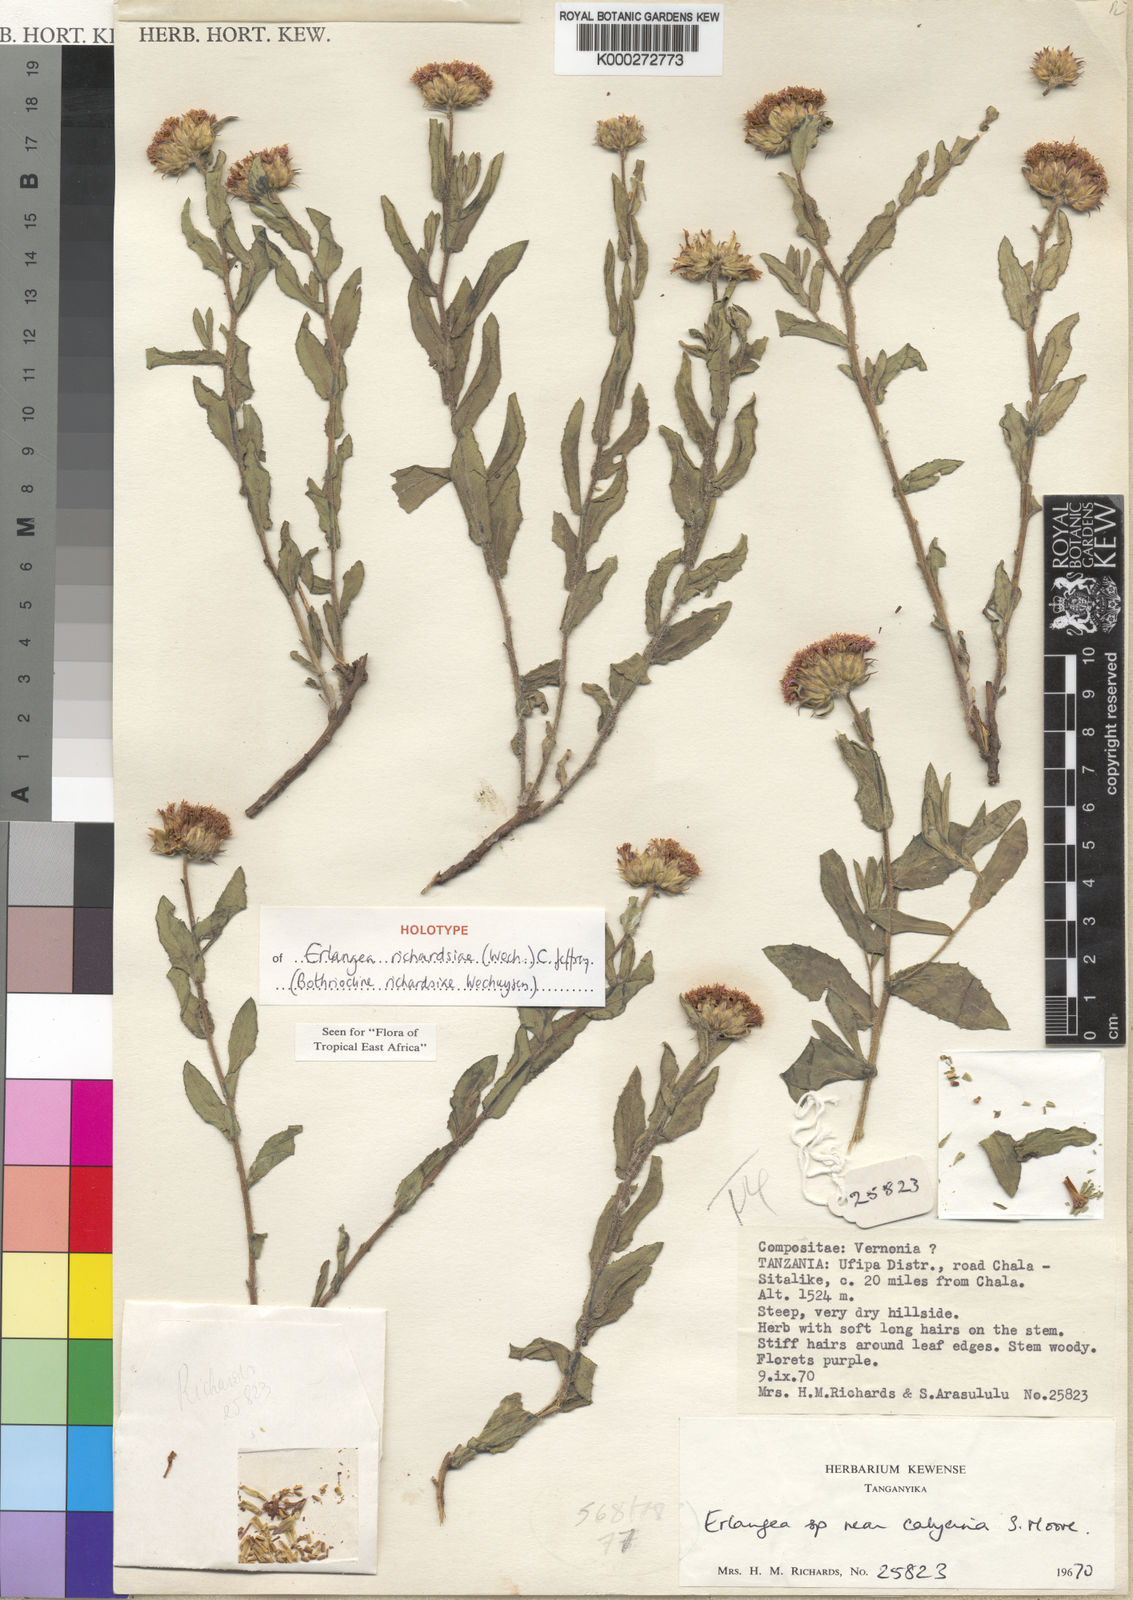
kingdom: Plantae
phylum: Tracheophyta
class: Magnoliopsida
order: Asterales
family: Asteraceae
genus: Erlangea
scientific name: Erlangea richardsiae
